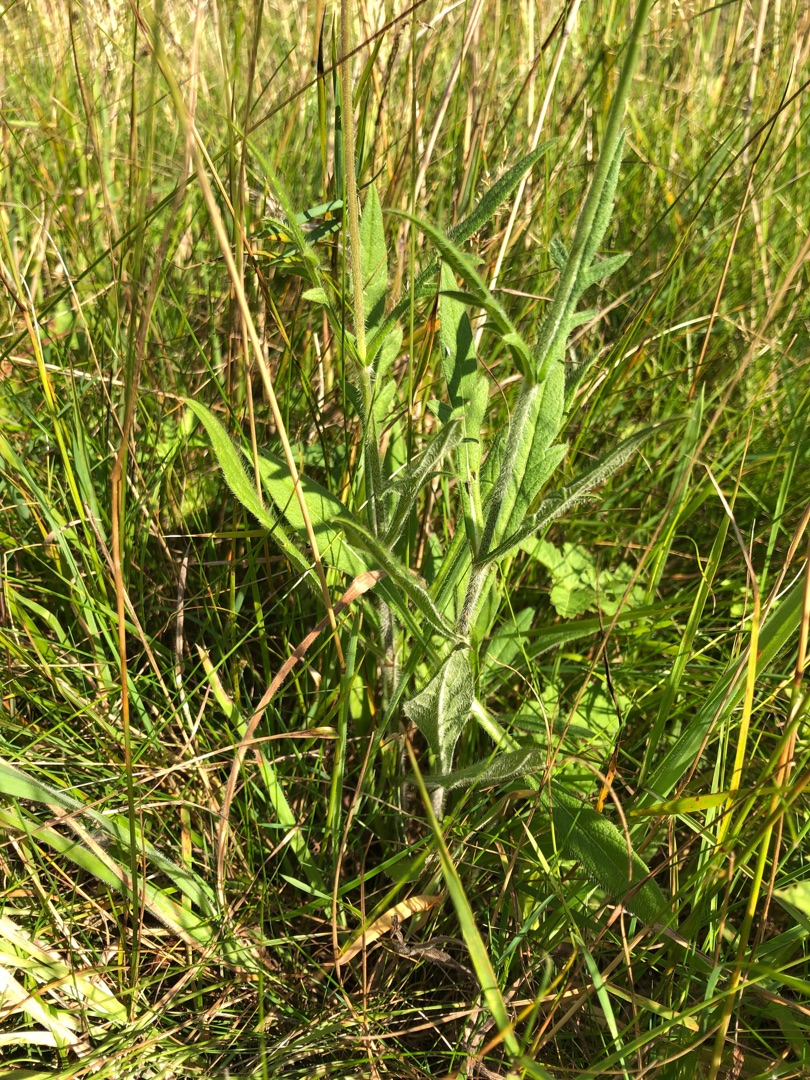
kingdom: Plantae
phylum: Tracheophyta
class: Magnoliopsida
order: Dipsacales
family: Caprifoliaceae
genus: Knautia
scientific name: Knautia arvensis
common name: Blåhat
